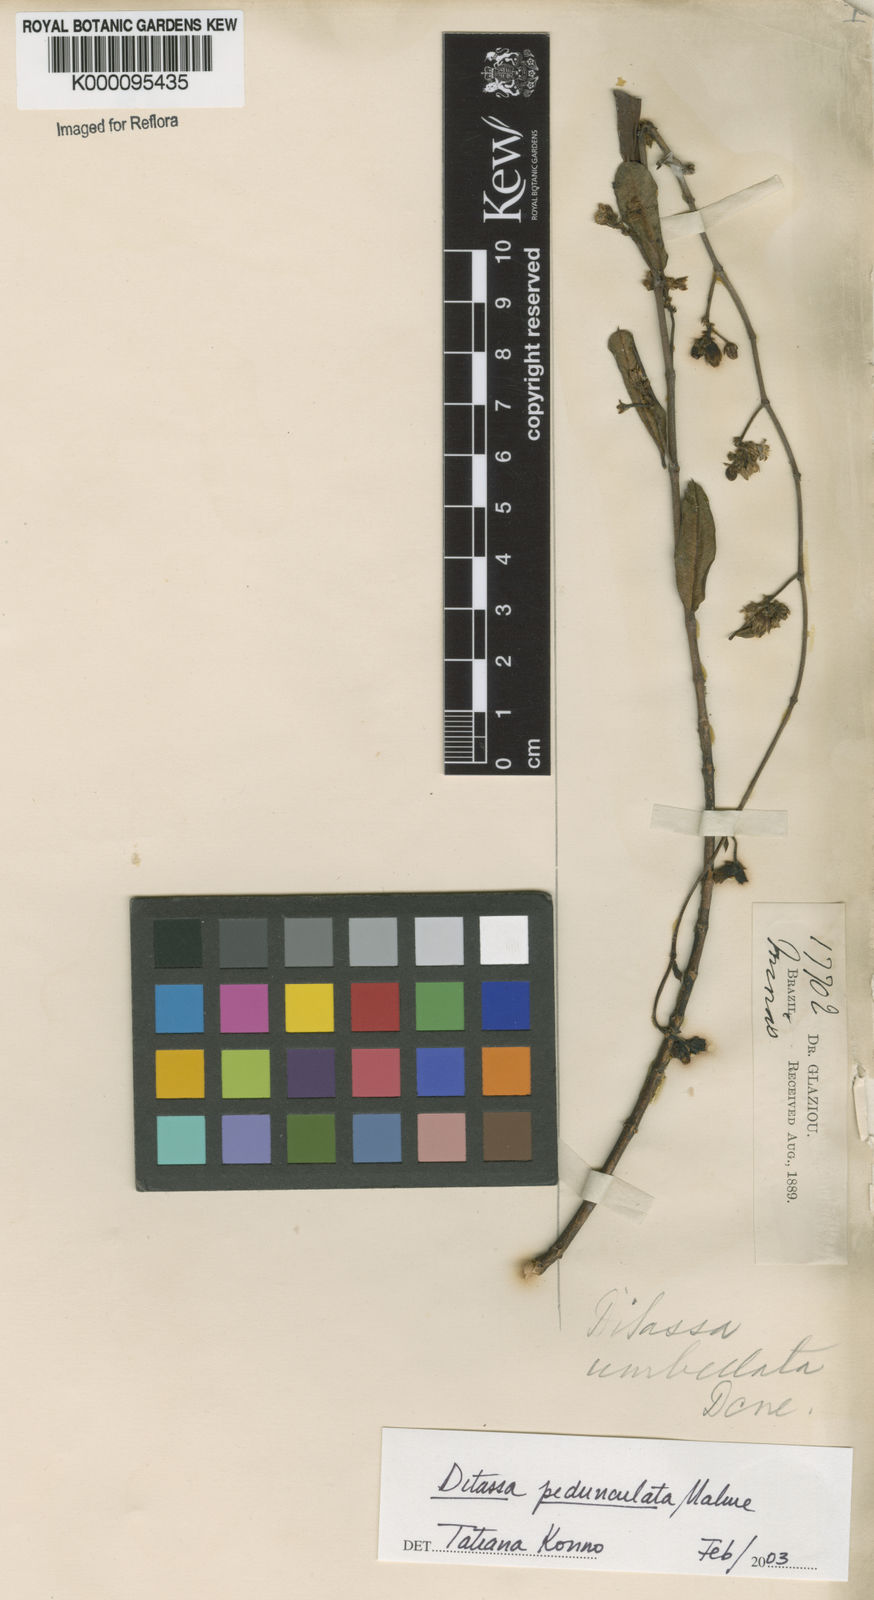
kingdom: Plantae
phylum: Tracheophyta
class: Magnoliopsida
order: Gentianales
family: Apocynaceae
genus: Ditassa
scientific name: Ditassa pedunculata
